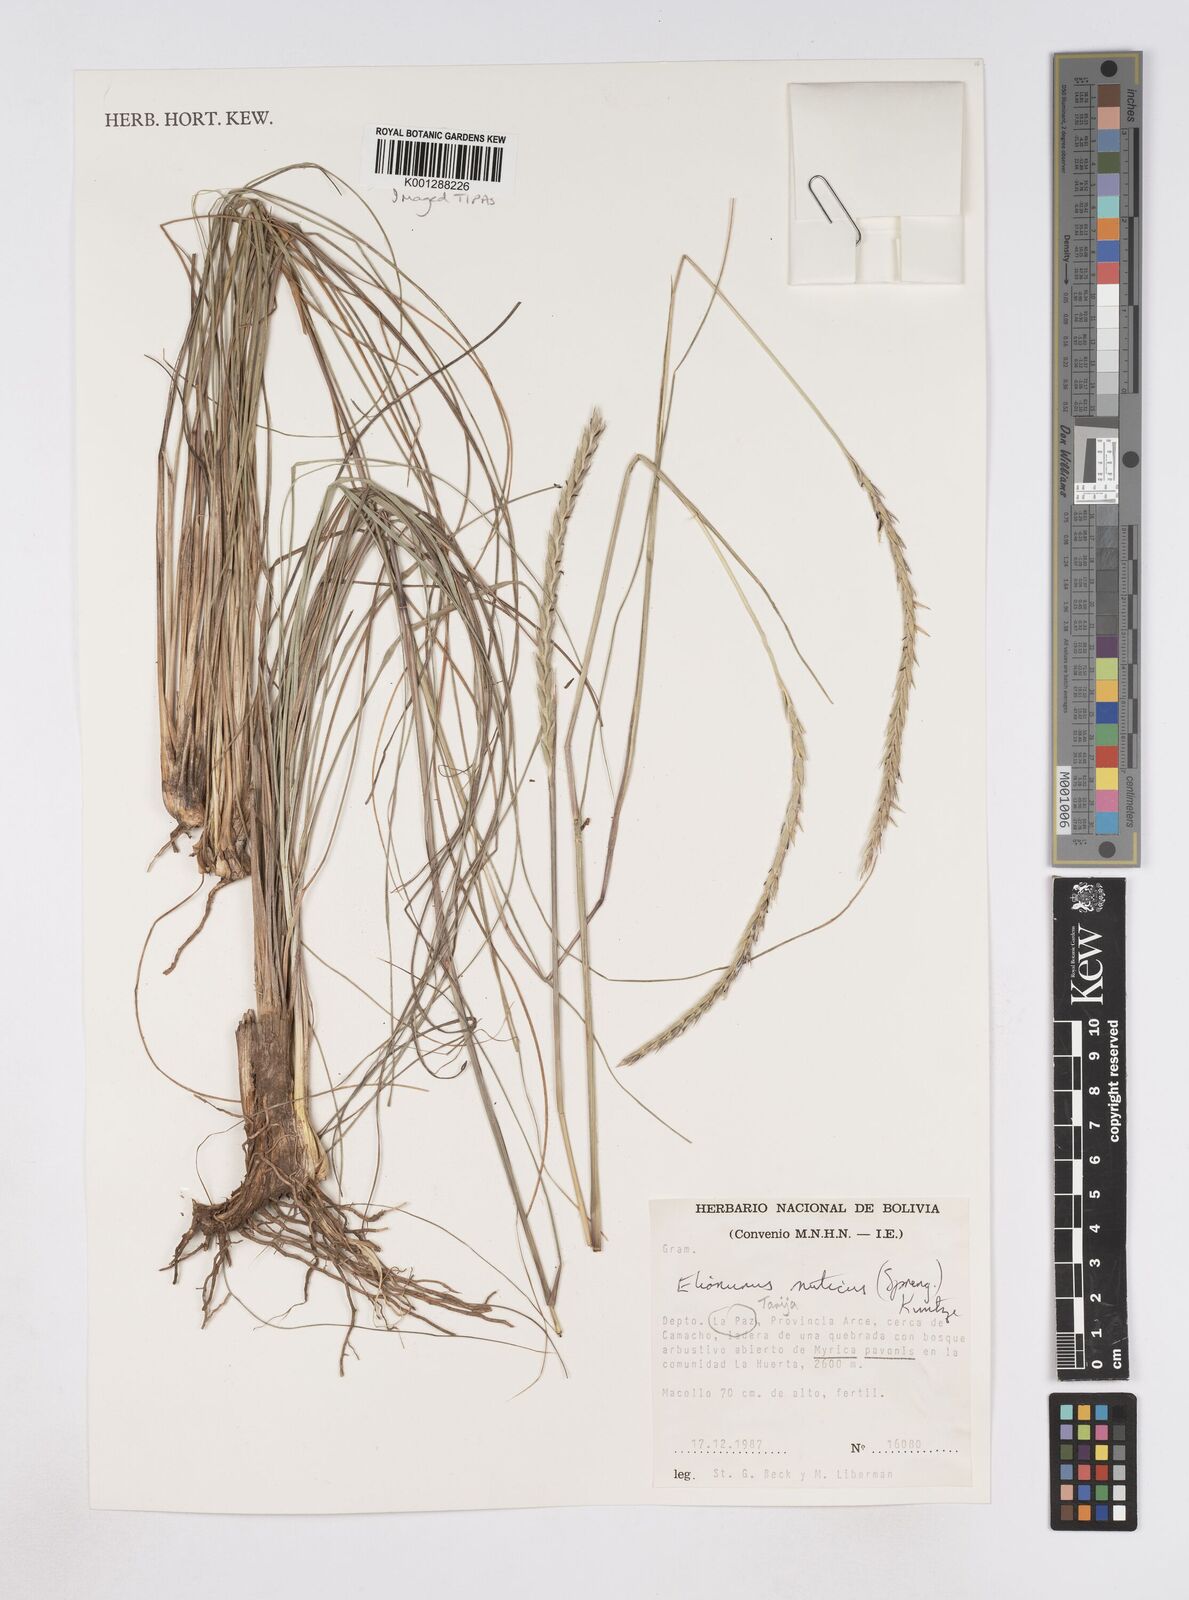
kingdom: Plantae
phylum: Tracheophyta
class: Liliopsida
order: Poales
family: Poaceae
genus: Elionurus
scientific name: Elionurus muticus
